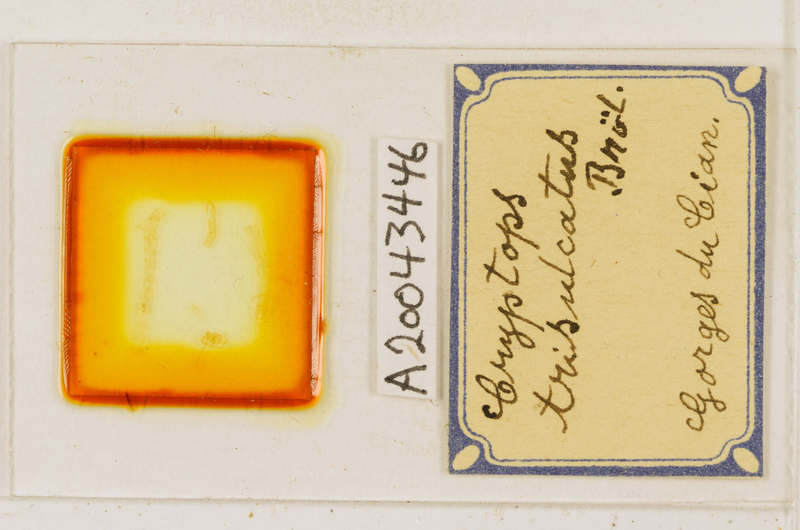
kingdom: Animalia
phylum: Arthropoda
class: Chilopoda
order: Scolopendromorpha
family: Cryptopidae
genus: Cryptops
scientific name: Cryptops trisulcatus
